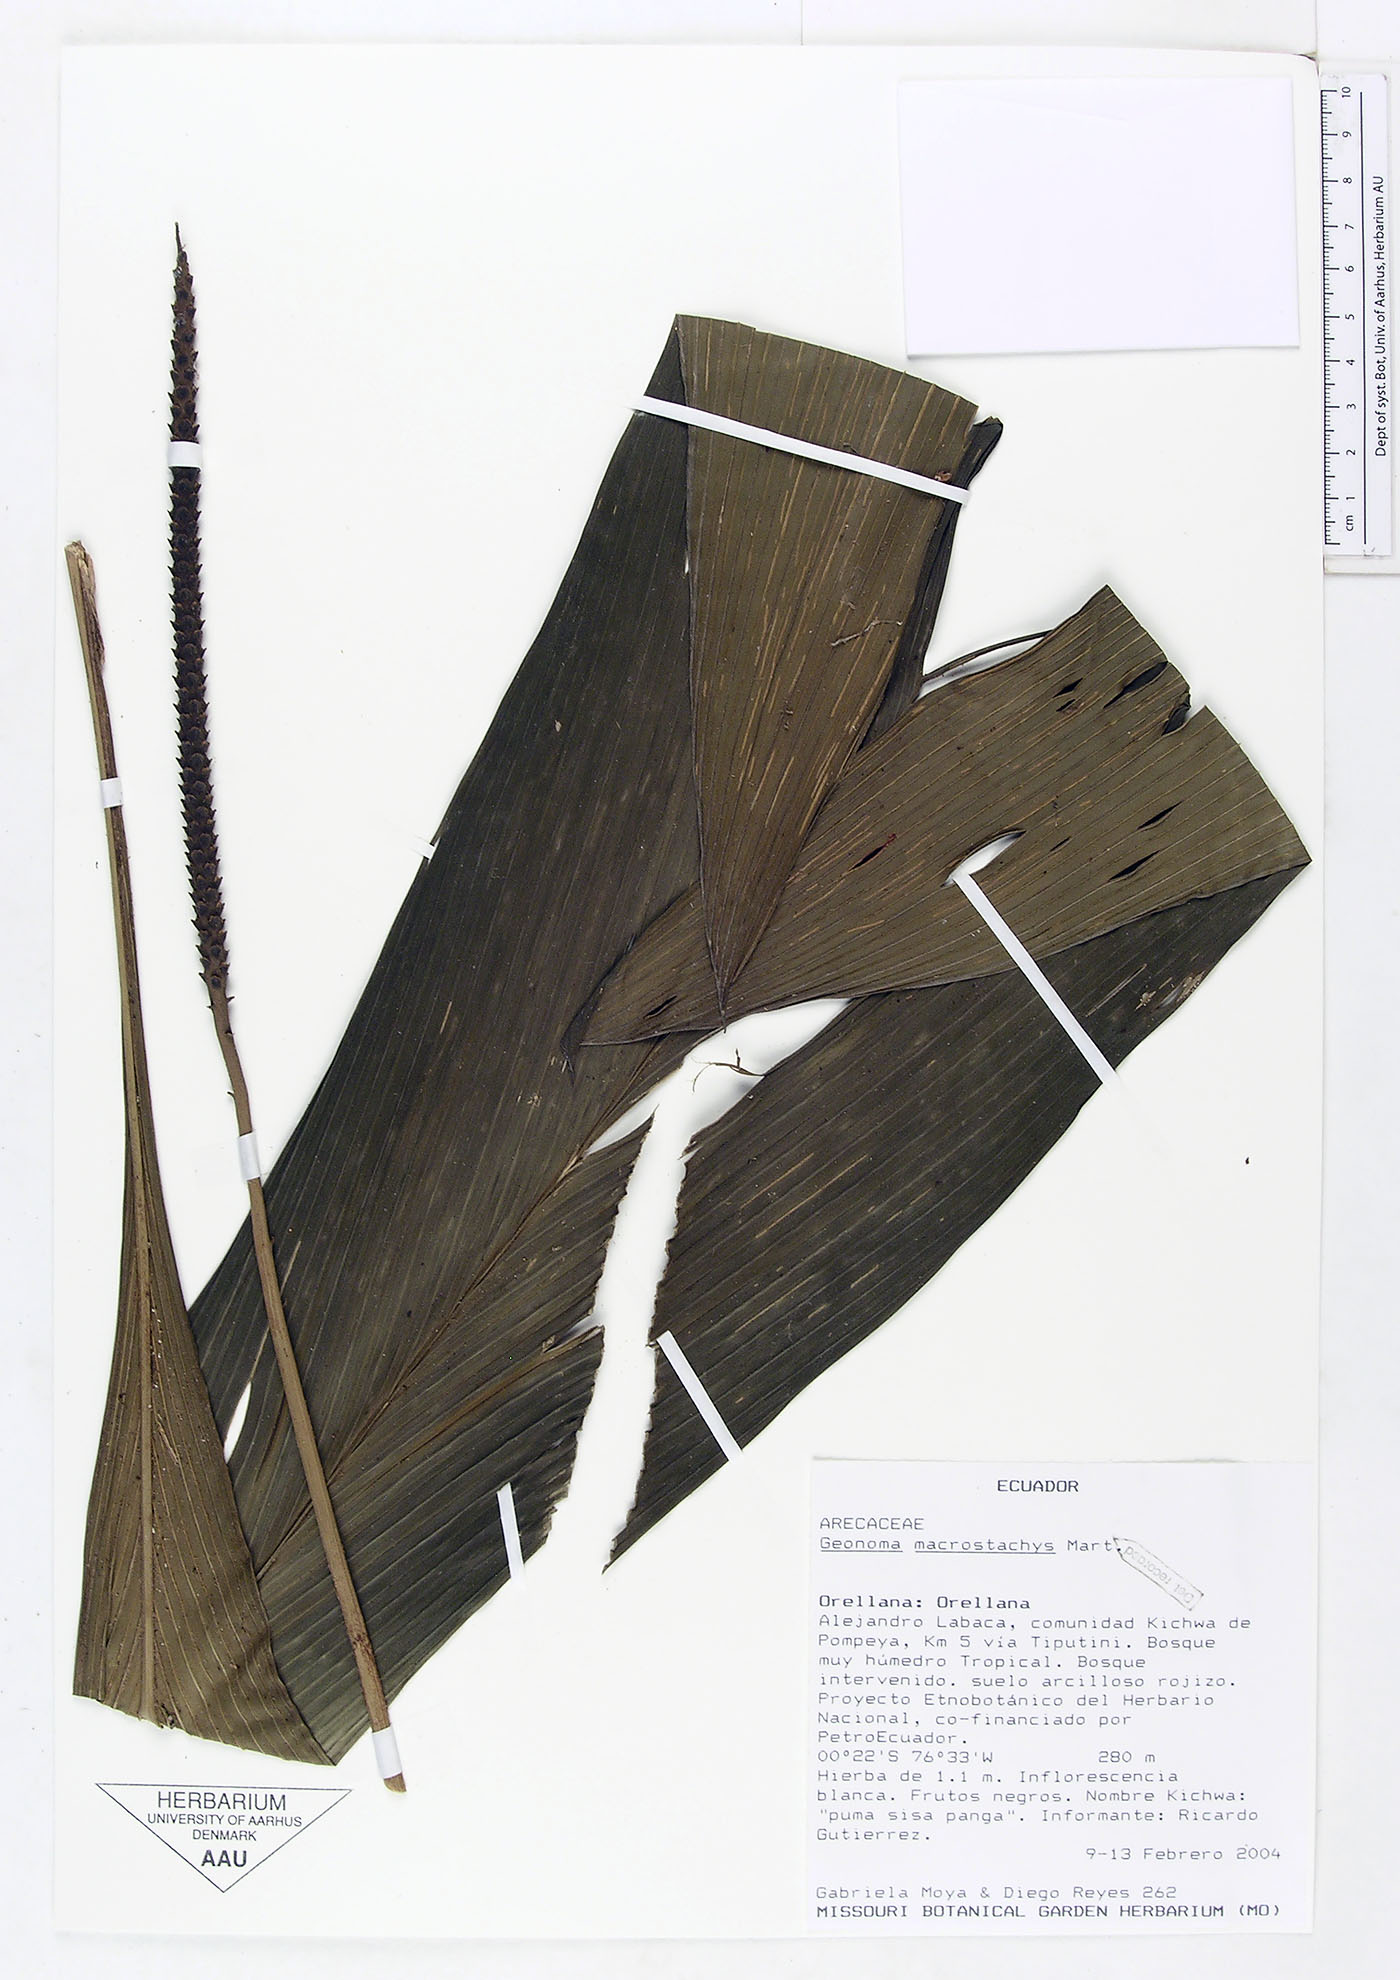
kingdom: Plantae
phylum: Tracheophyta
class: Liliopsida
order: Arecales
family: Arecaceae
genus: Geonoma
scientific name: Geonoma macrostachys
